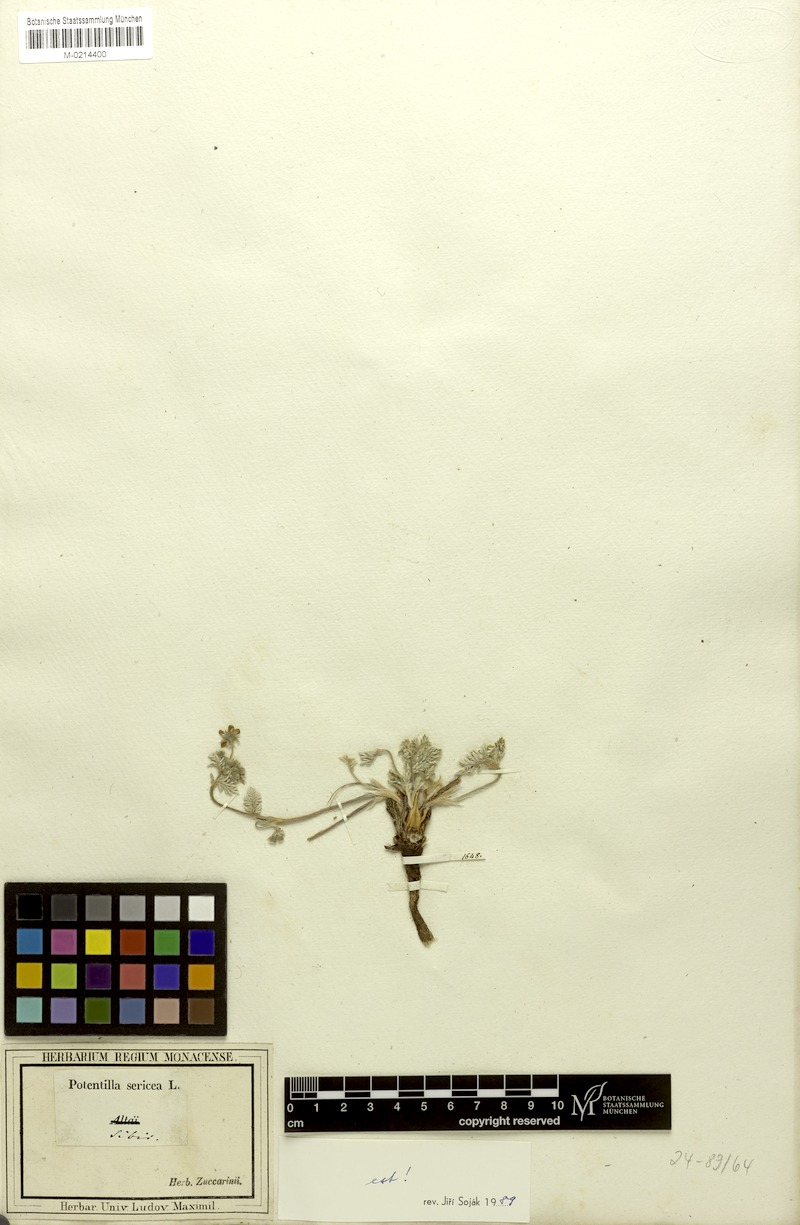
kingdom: Plantae
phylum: Tracheophyta
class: Magnoliopsida
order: Rosales
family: Rosaceae
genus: Potentilla
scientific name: Potentilla sericea
